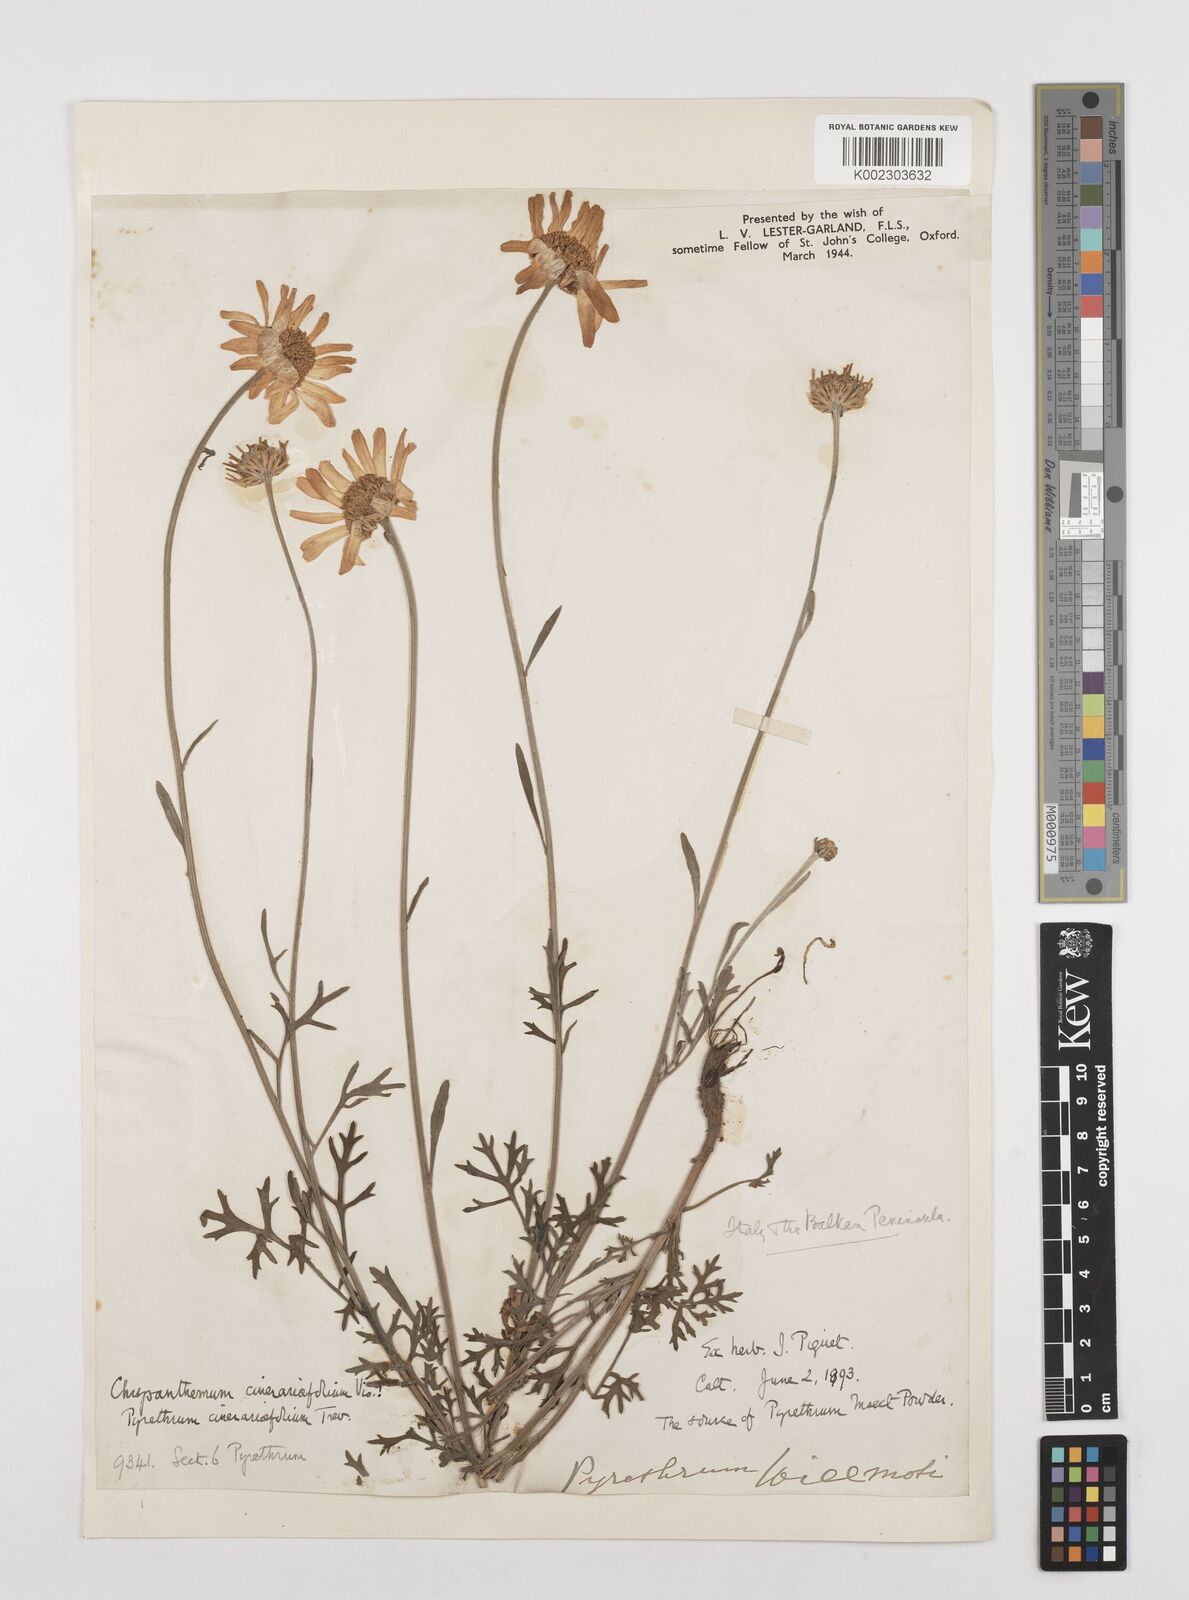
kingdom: Plantae
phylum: Tracheophyta
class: Magnoliopsida
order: Asterales
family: Asteraceae
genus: Tanacetum
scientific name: Tanacetum cinerariifolium
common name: Dalmatian pyrethrum
